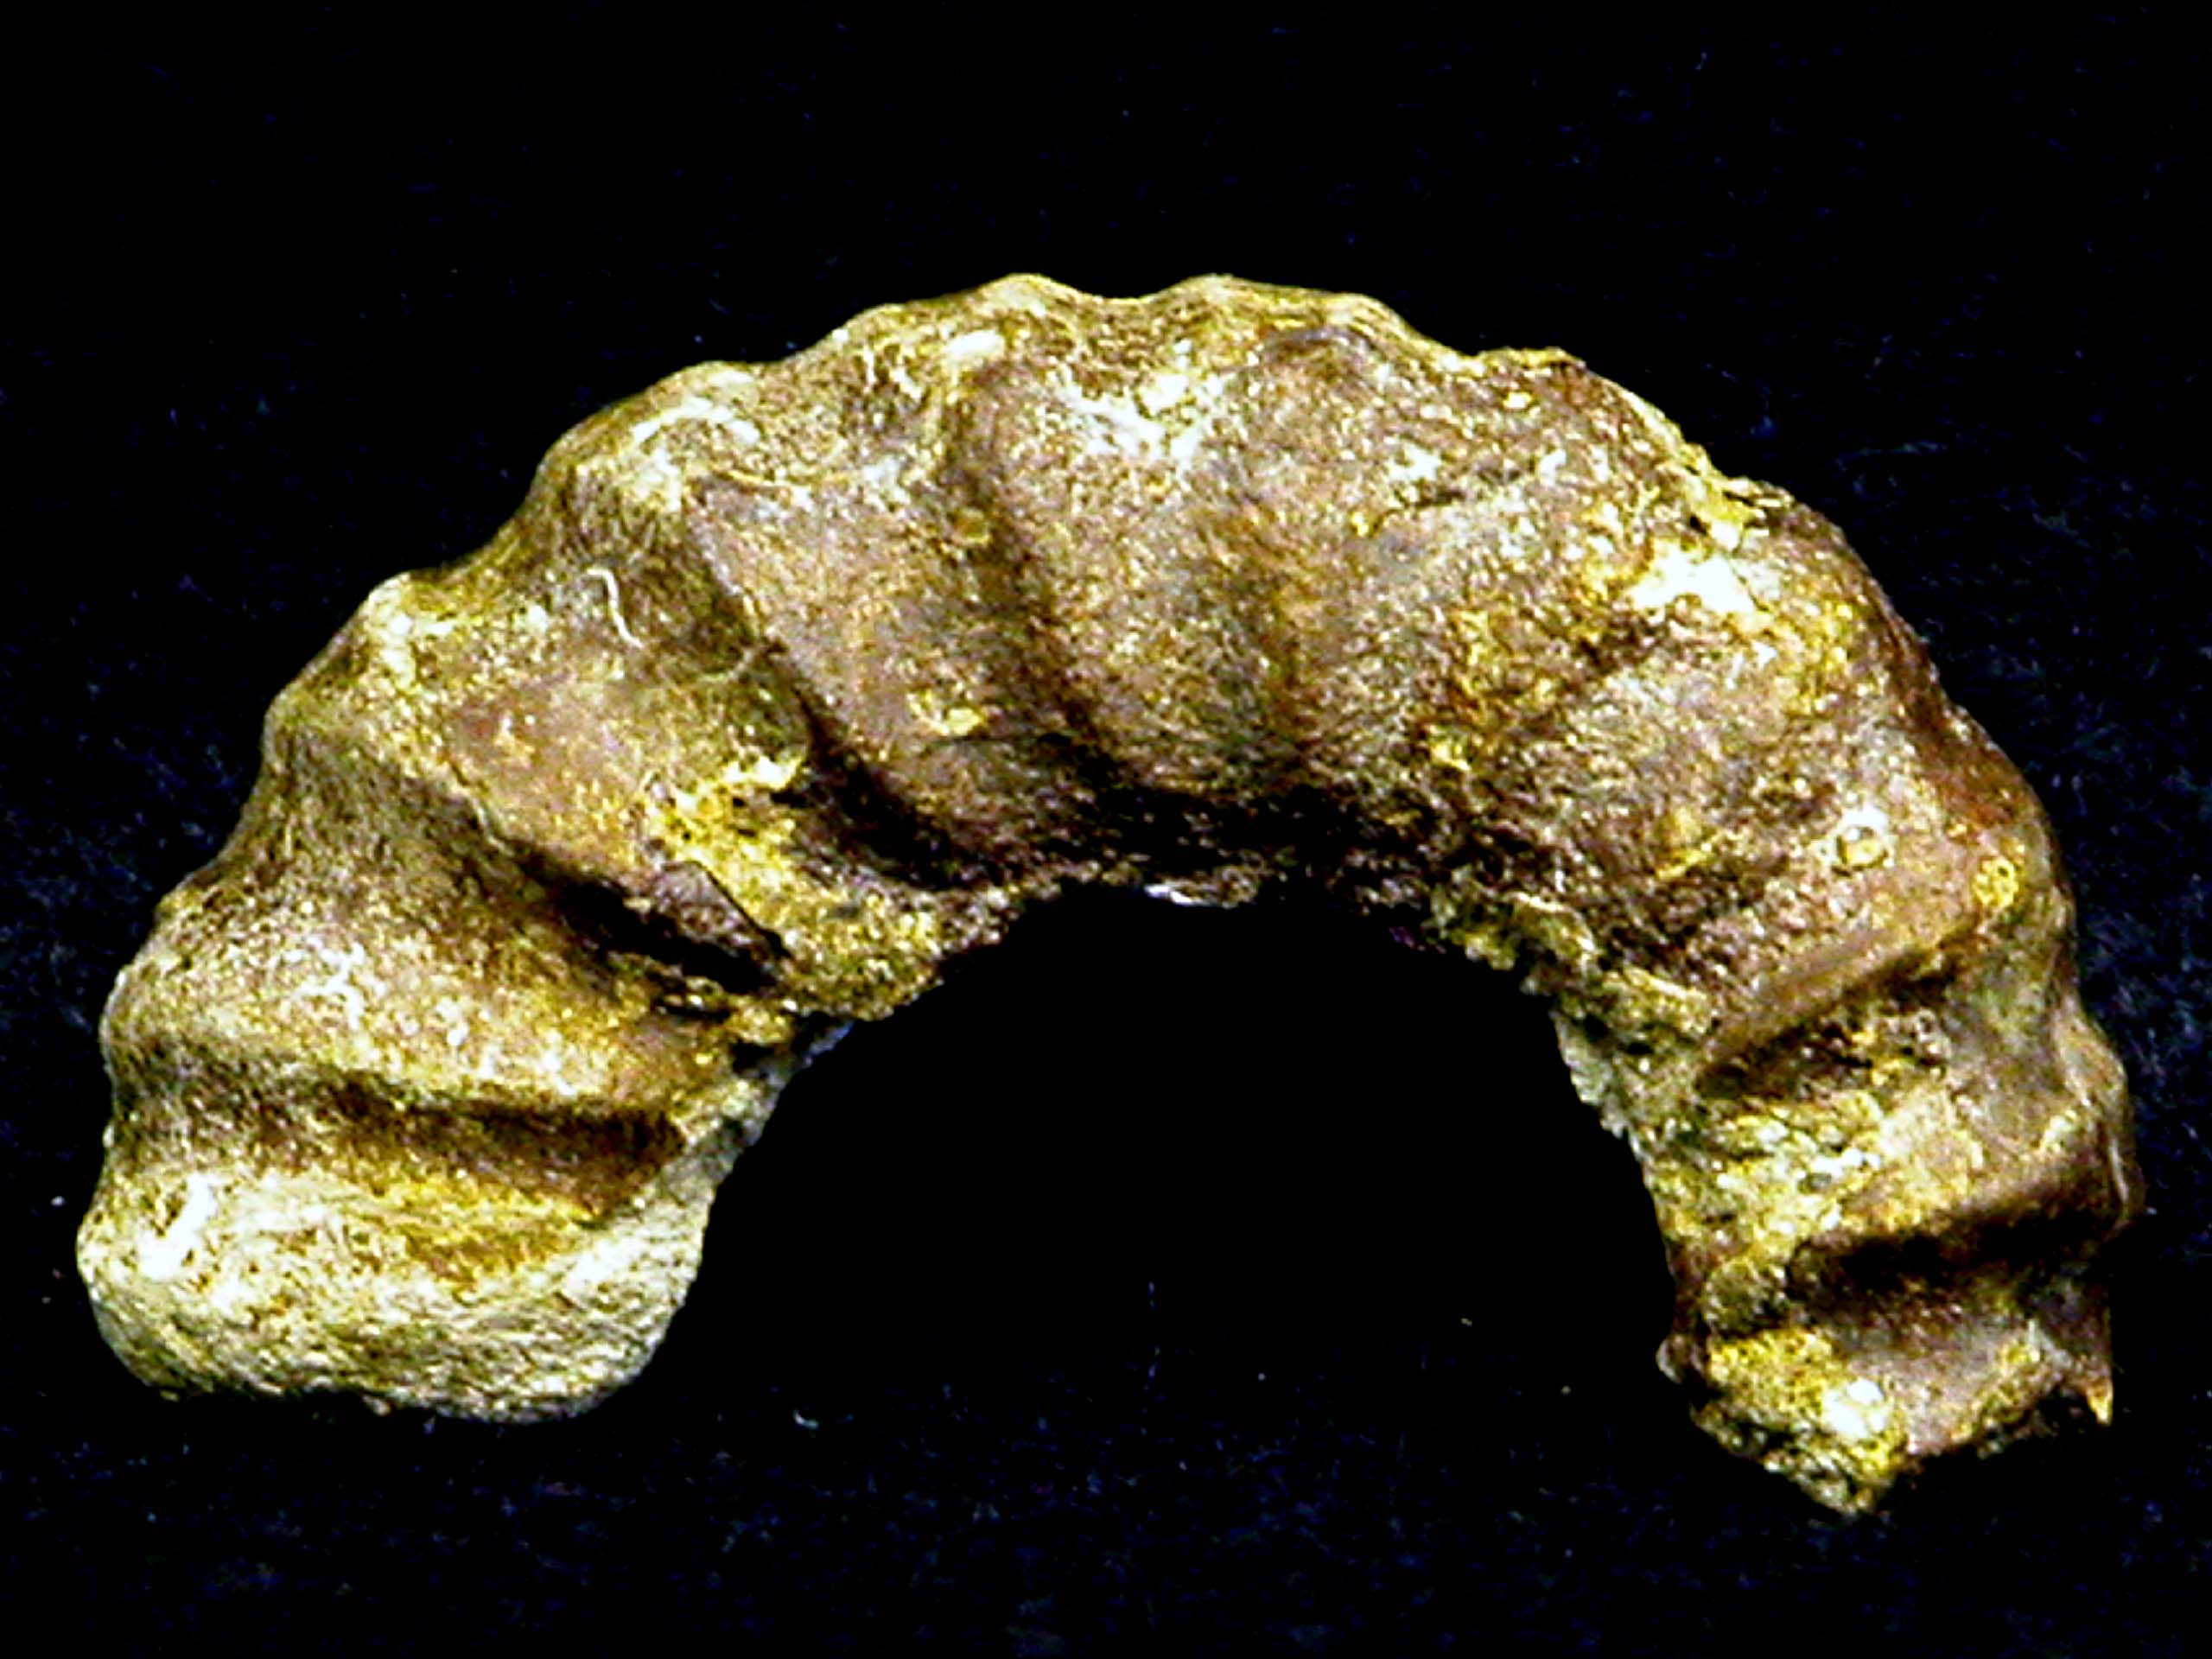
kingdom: Animalia
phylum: Mollusca
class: Cephalopoda
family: Liparoceratidae
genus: Amblycoceras
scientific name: Amblycoceras
